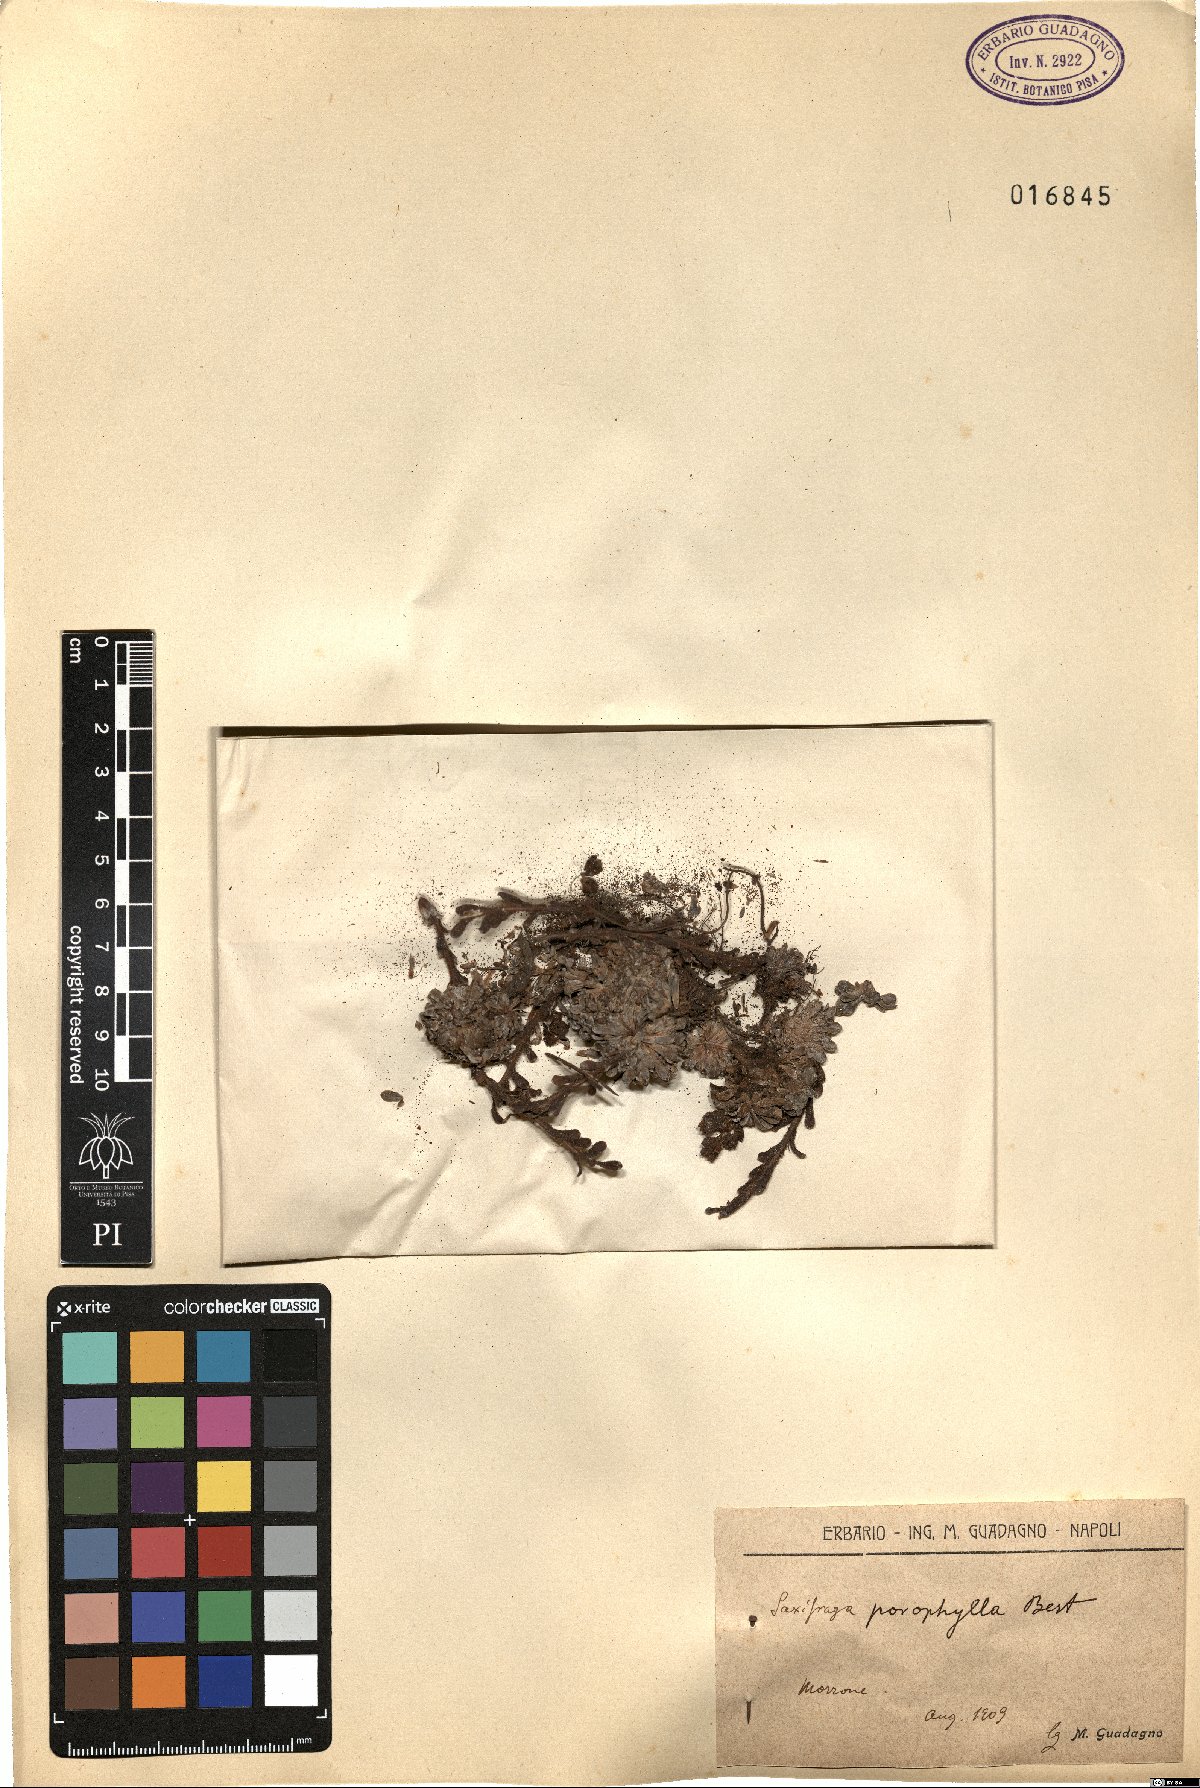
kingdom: Plantae
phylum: Tracheophyta
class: Magnoliopsida
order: Saxifragales
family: Saxifragaceae
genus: Saxifraga
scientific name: Saxifraga porophylla
